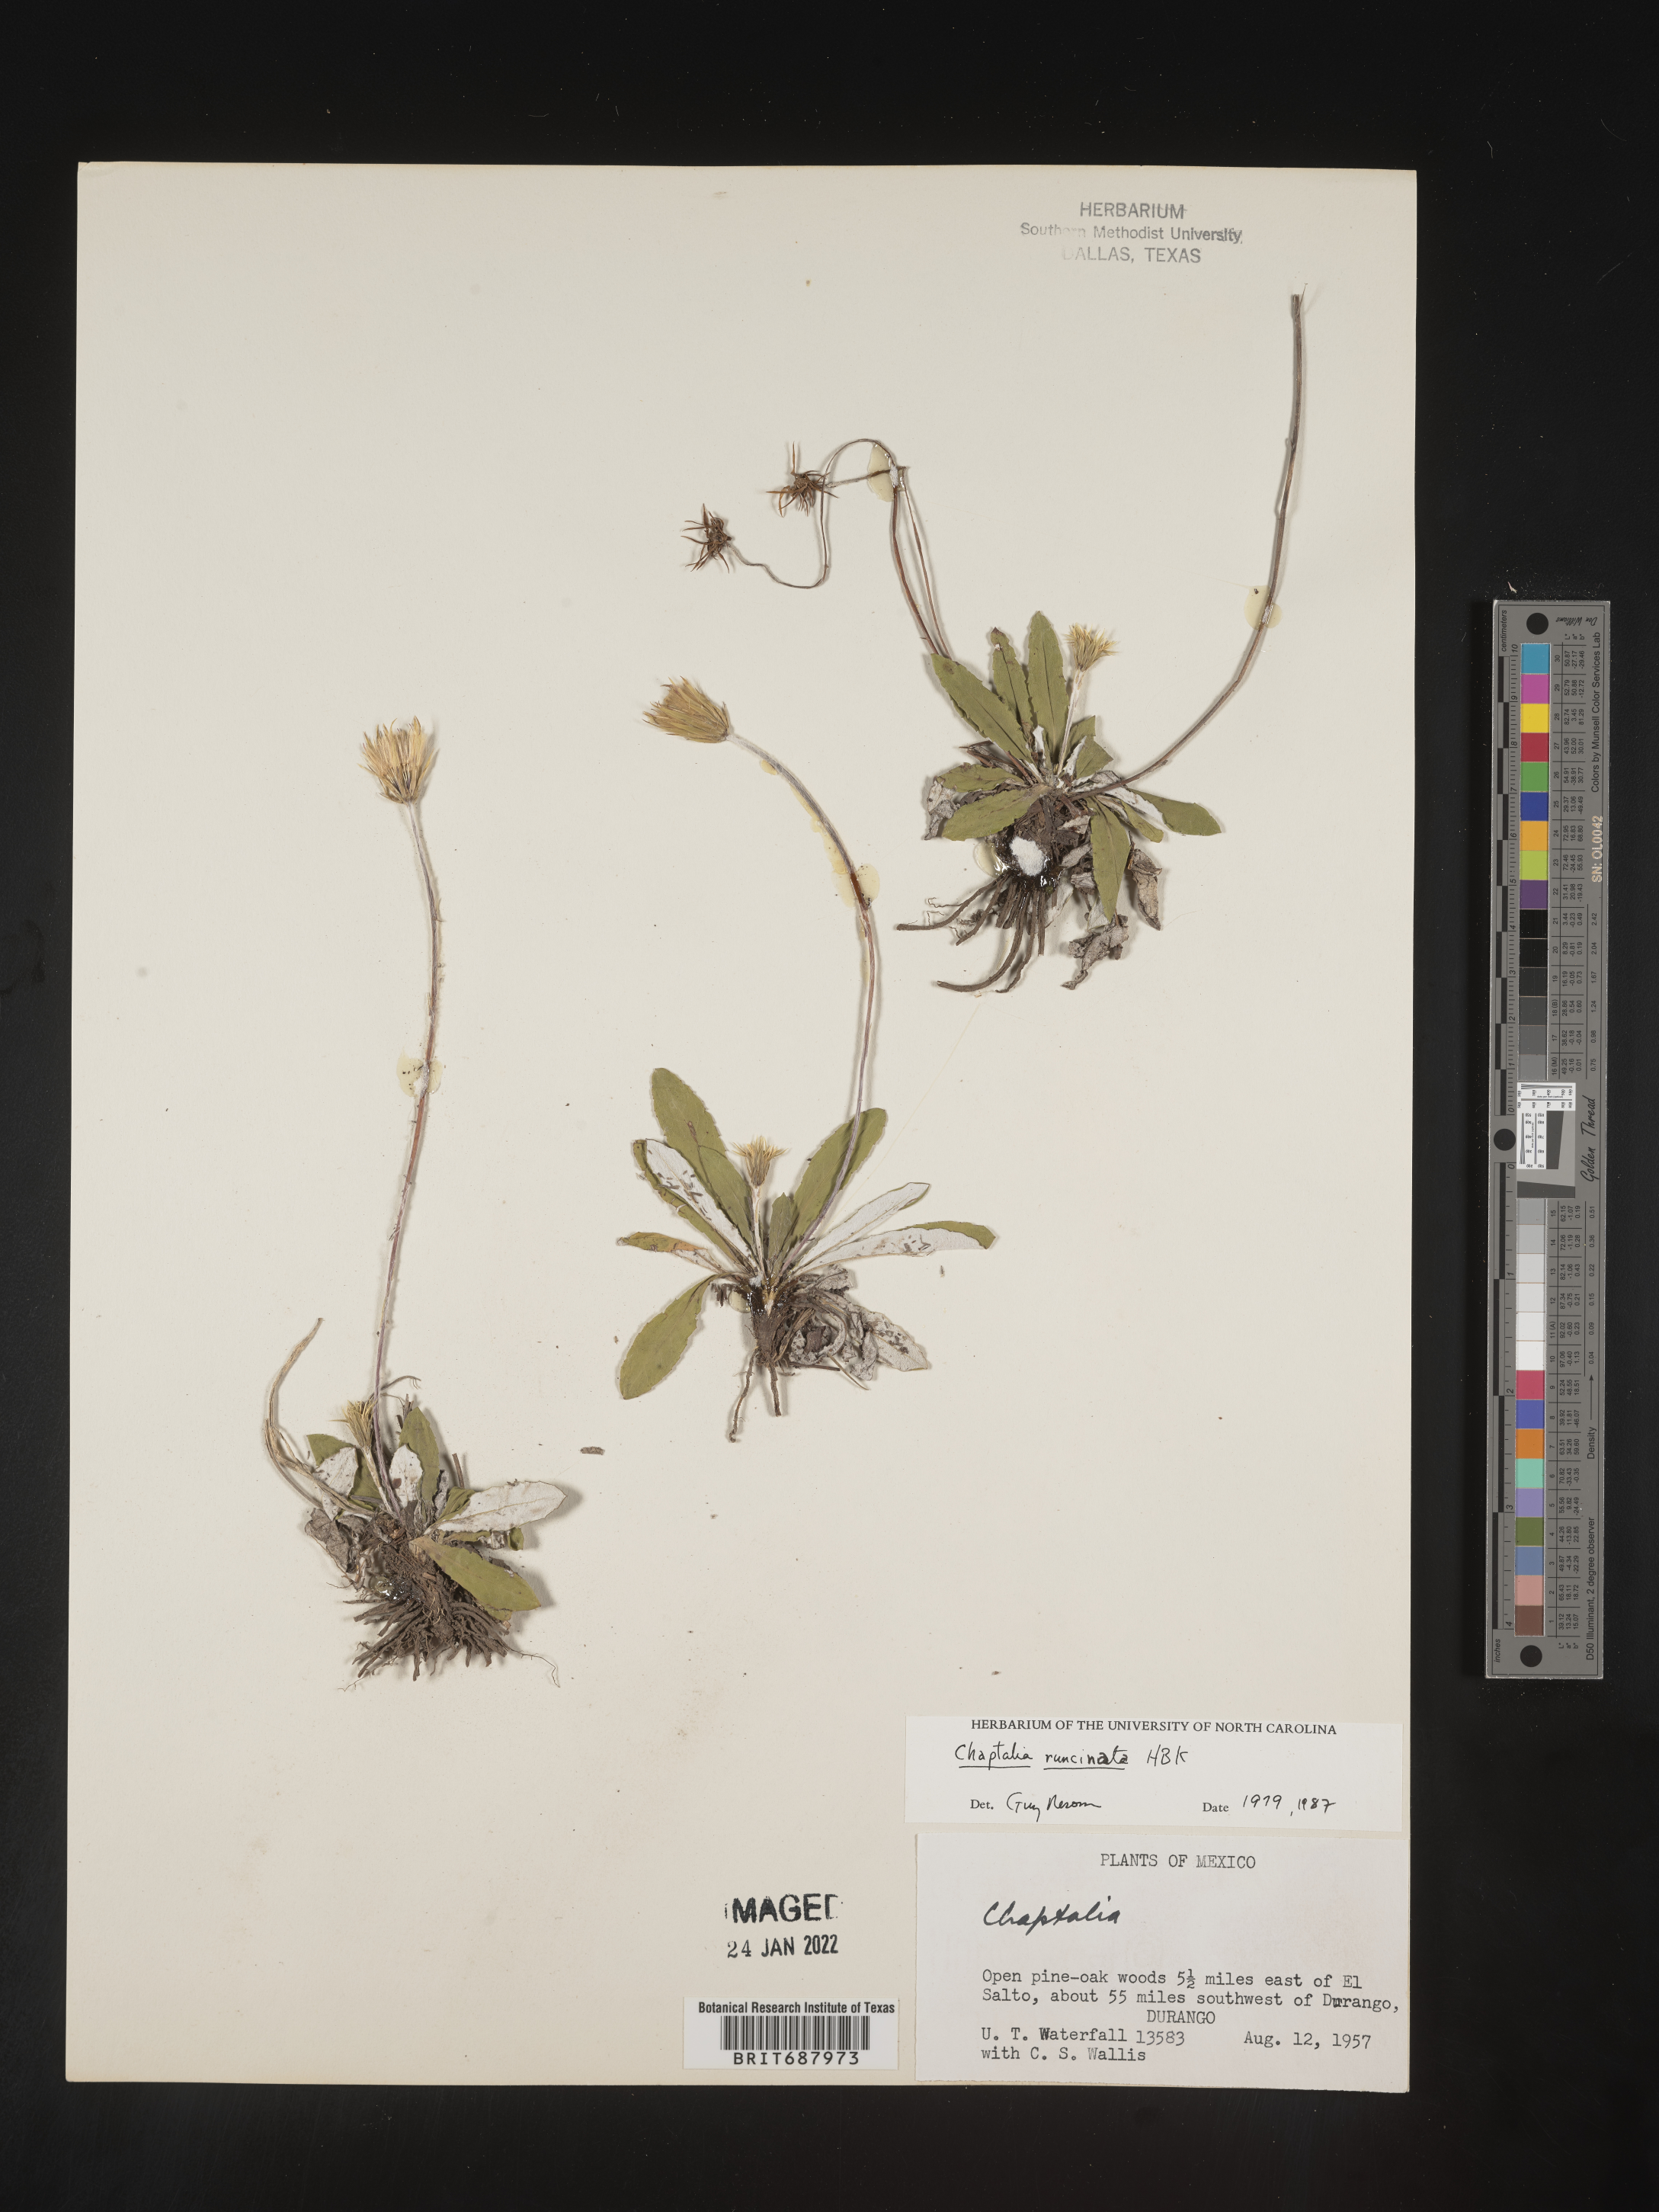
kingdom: Plantae
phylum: Tracheophyta
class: Magnoliopsida
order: Asterales
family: Asteraceae
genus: Chaptalia
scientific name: Chaptalia
